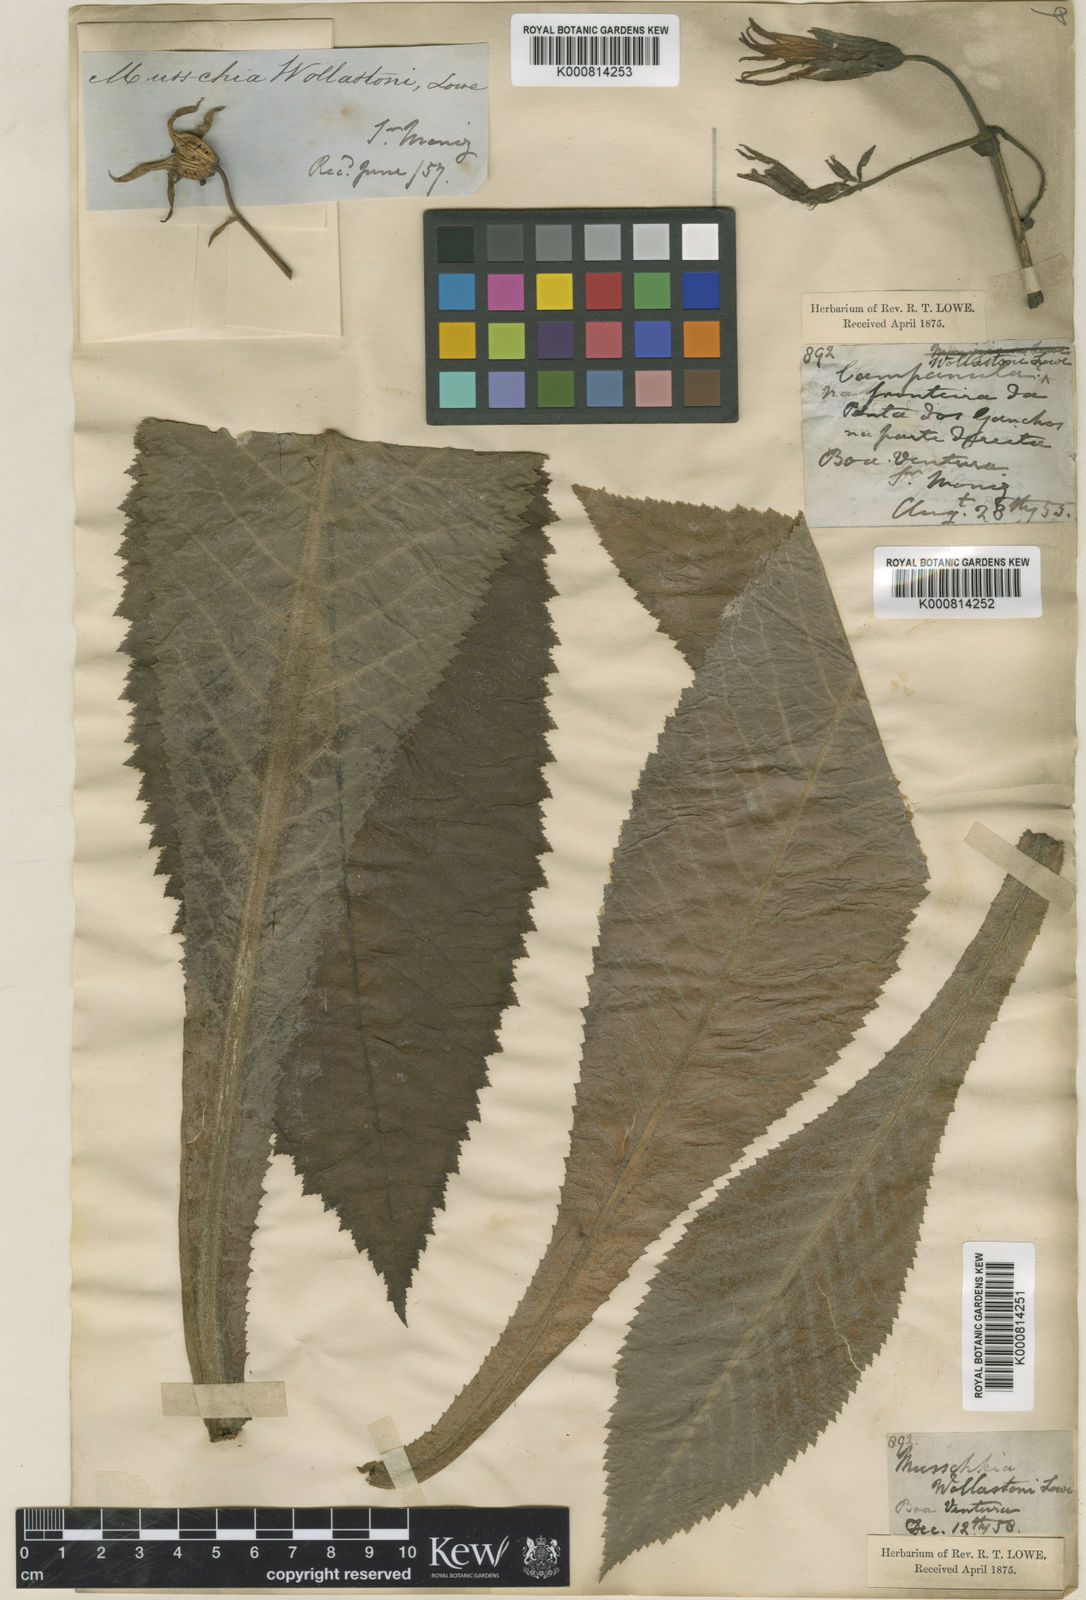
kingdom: Plantae
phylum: Tracheophyta
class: Magnoliopsida
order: Asterales
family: Campanulaceae
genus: Musschia
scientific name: Musschia wollastonii
